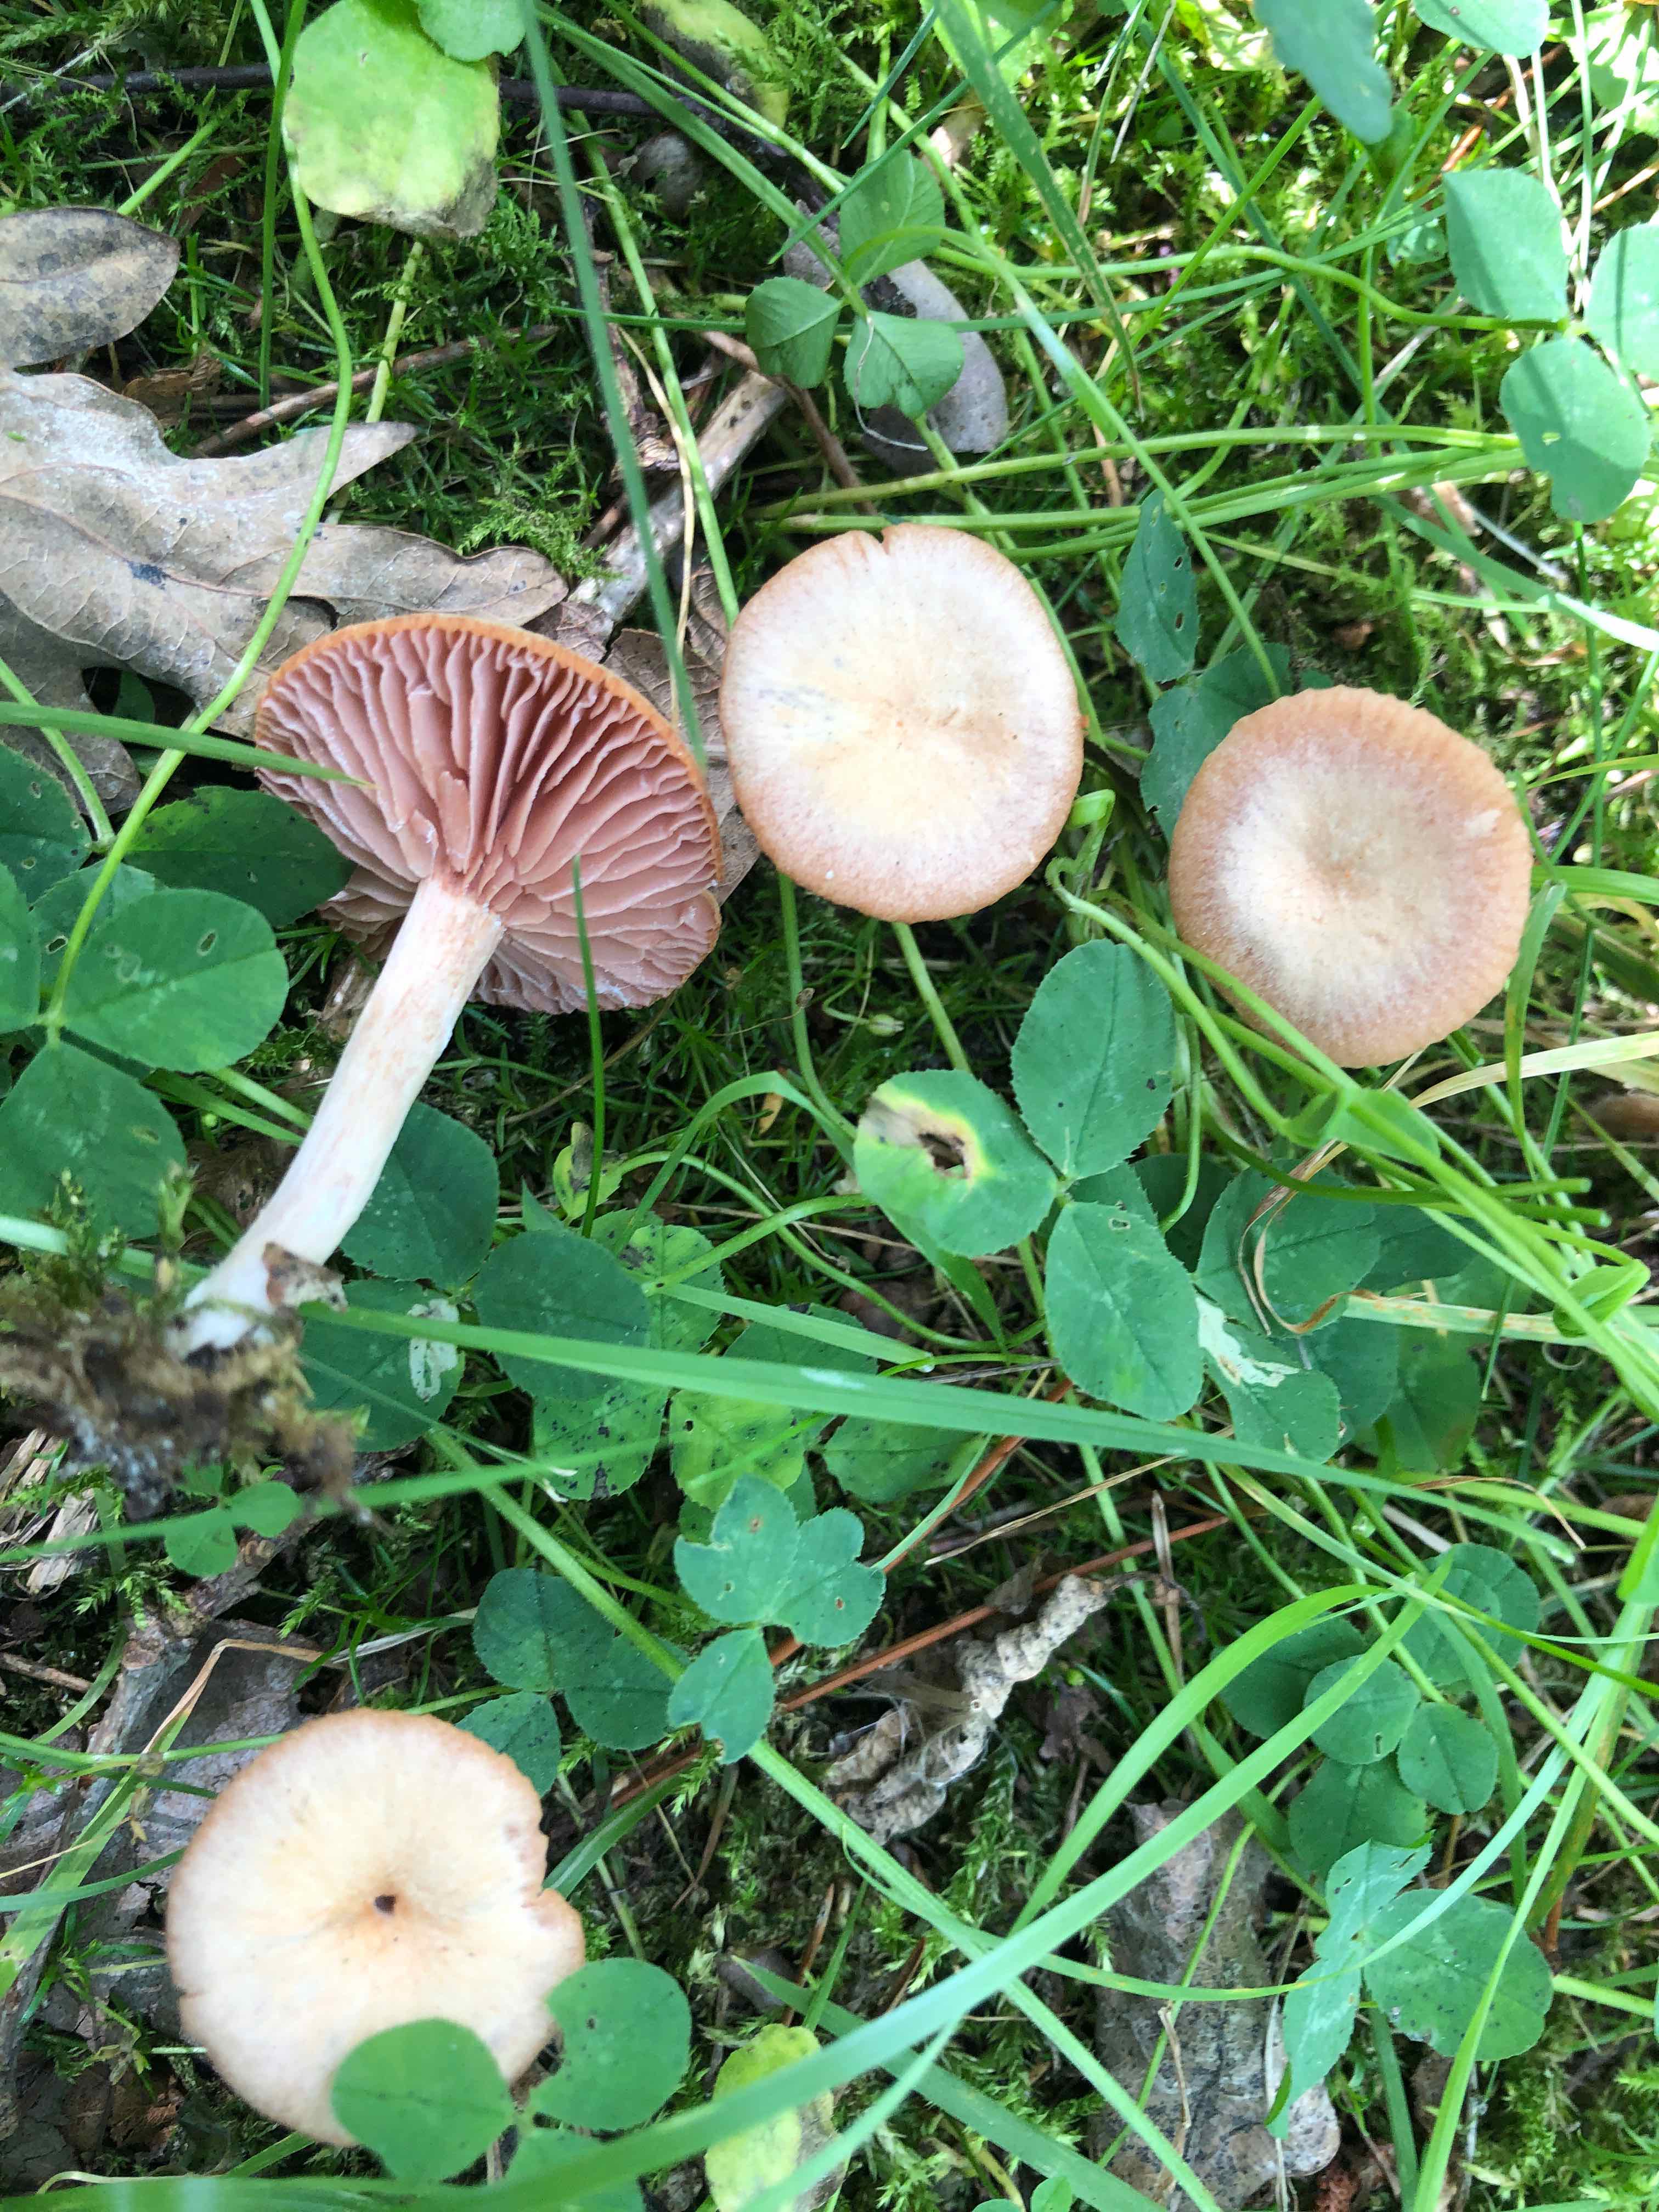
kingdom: Fungi
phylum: Basidiomycota
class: Agaricomycetes
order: Agaricales
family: Hydnangiaceae
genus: Laccaria
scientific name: Laccaria laccata
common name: rød ametysthat
